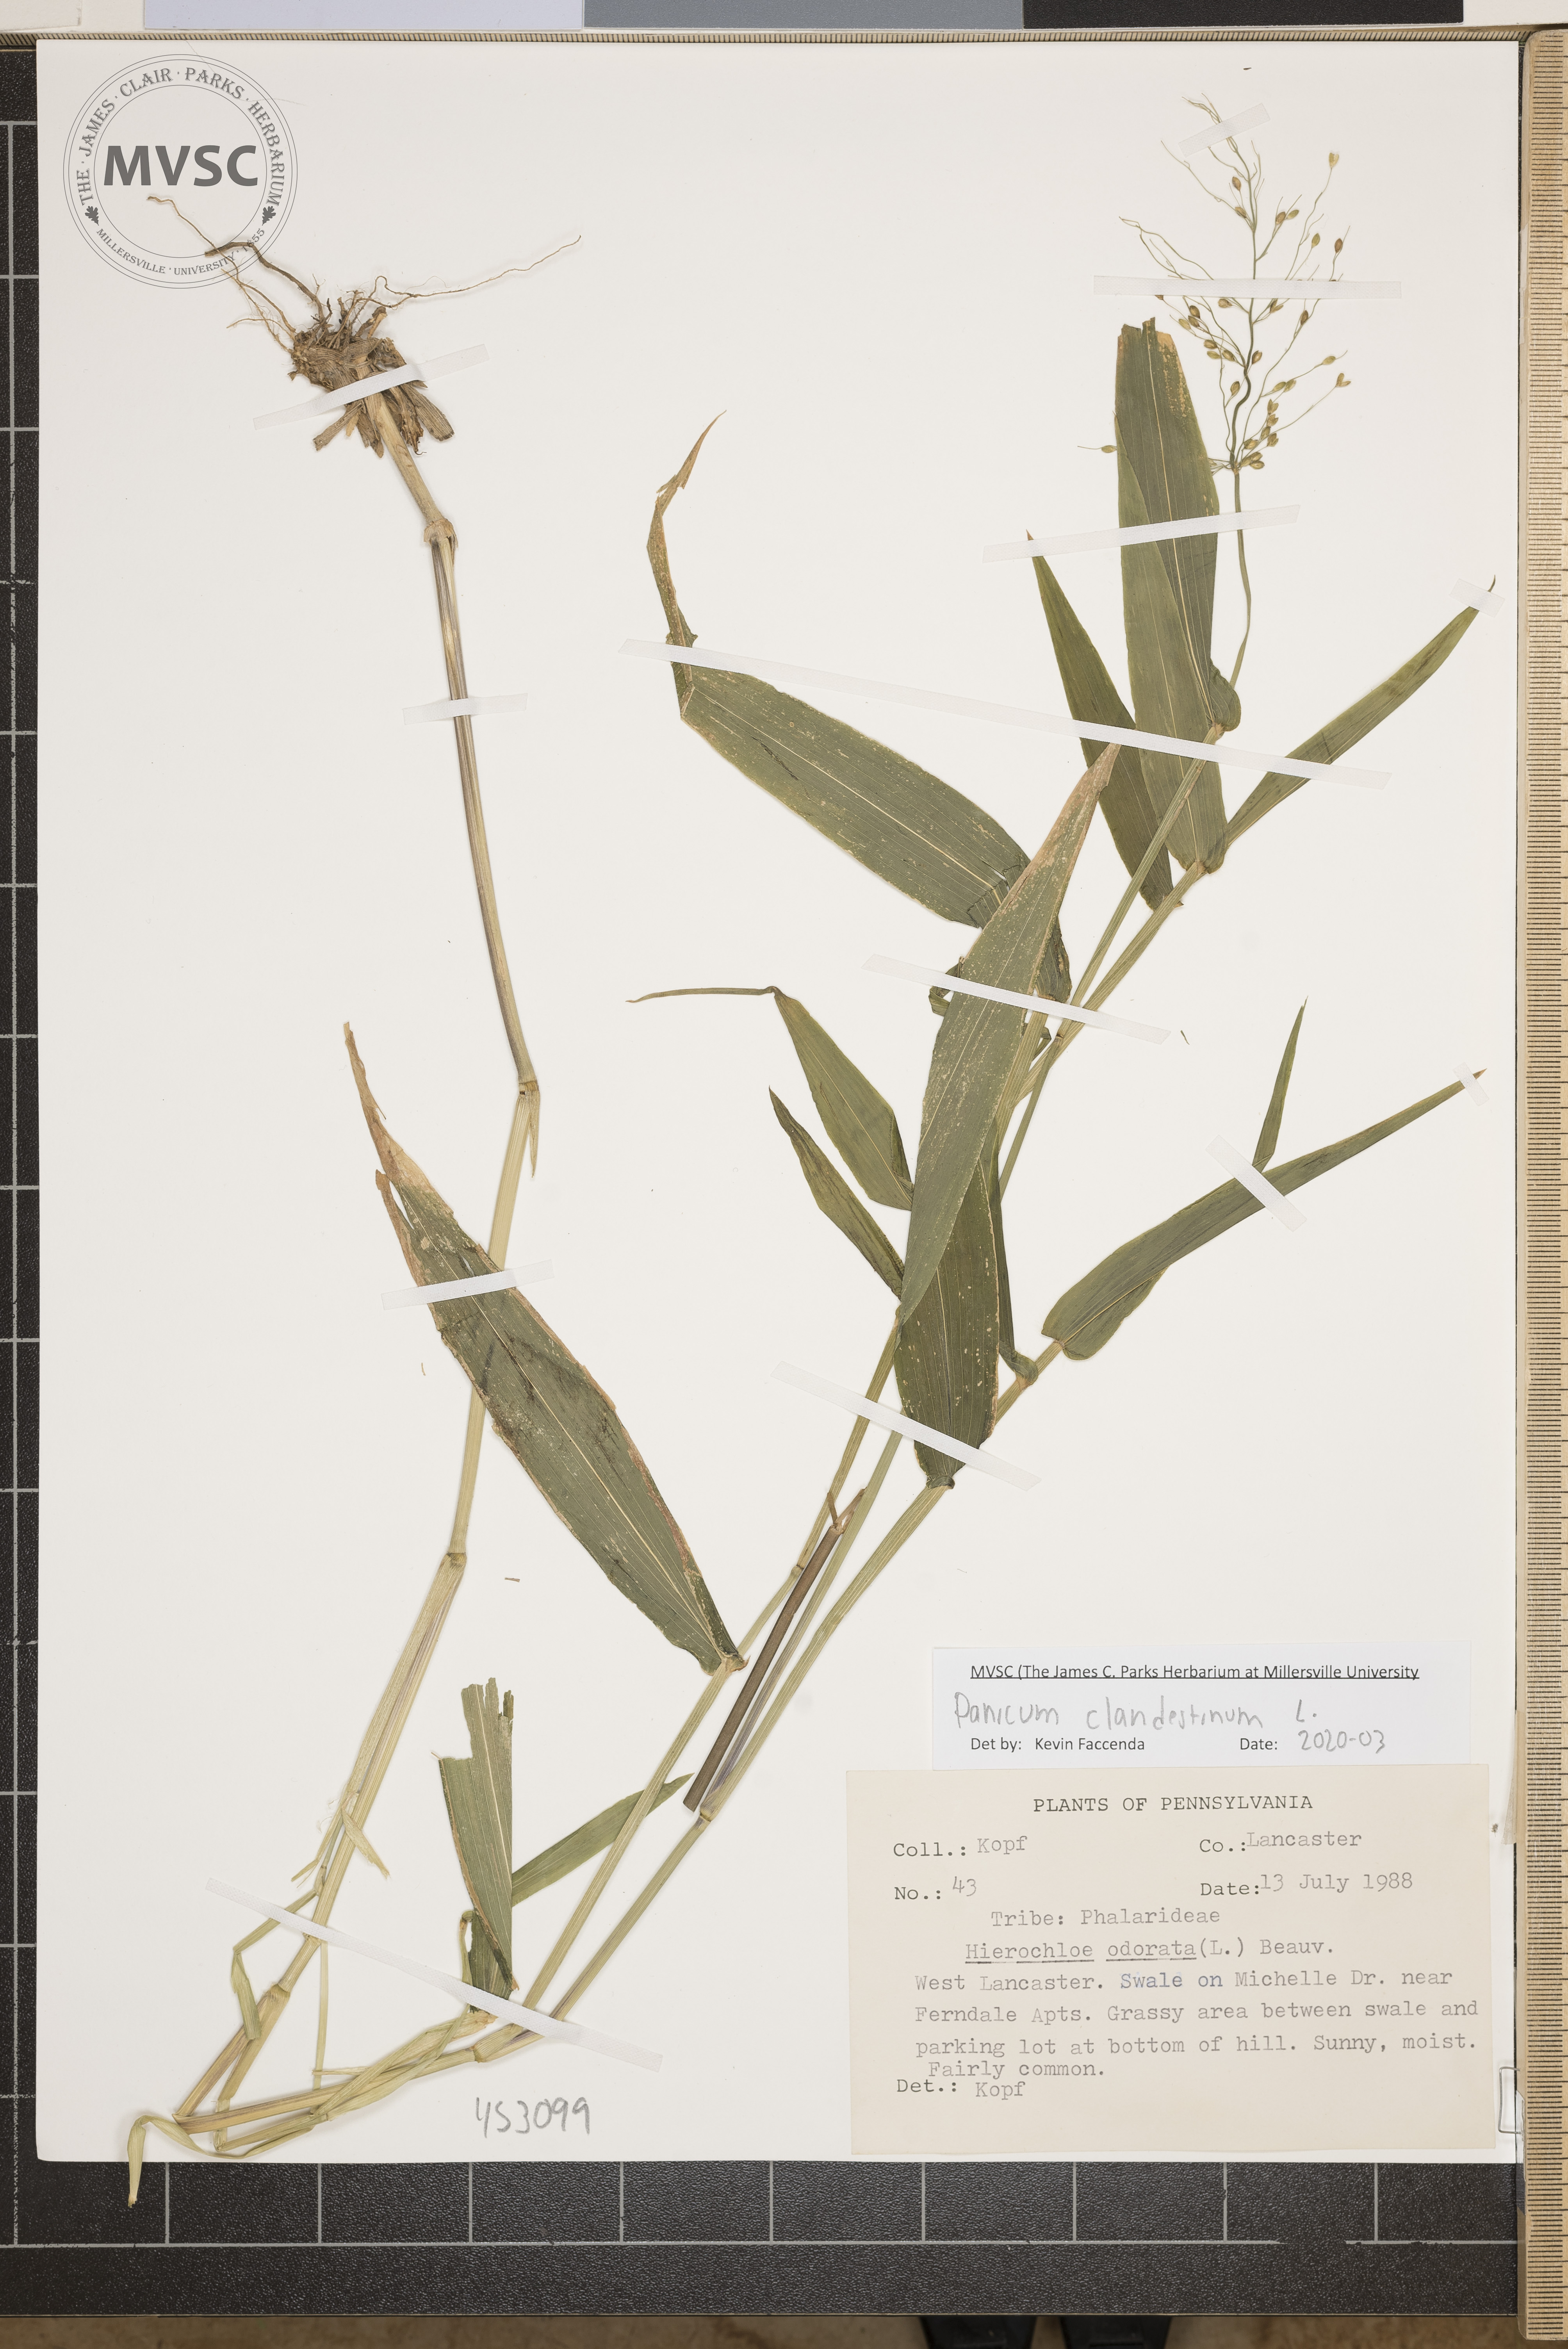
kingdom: Plantae
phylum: Tracheophyta
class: Liliopsida
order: Poales
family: Poaceae
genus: Dichanthelium
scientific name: Dichanthelium clandestinum
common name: Deer-tongue grass
